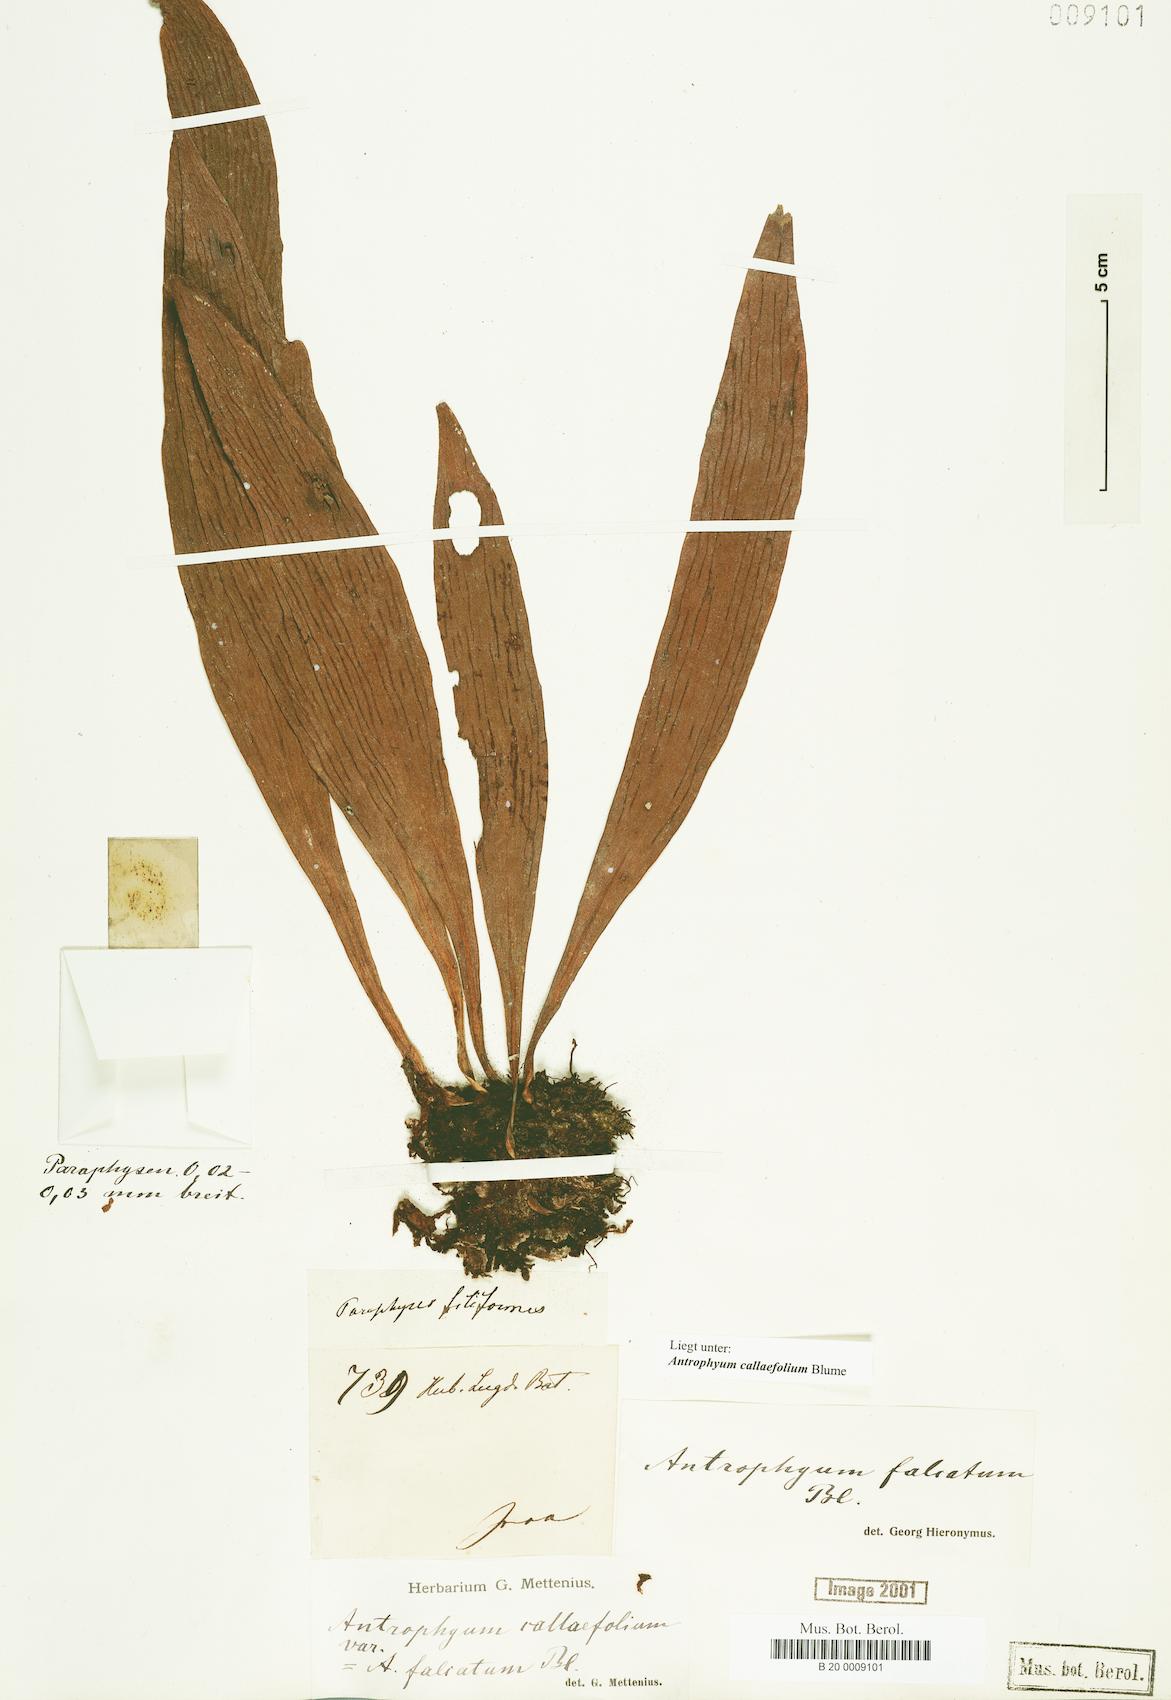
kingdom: Plantae
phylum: Tracheophyta
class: Polypodiopsida
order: Polypodiales
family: Pteridaceae
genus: Antrophyum
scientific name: Antrophyum callifolium
